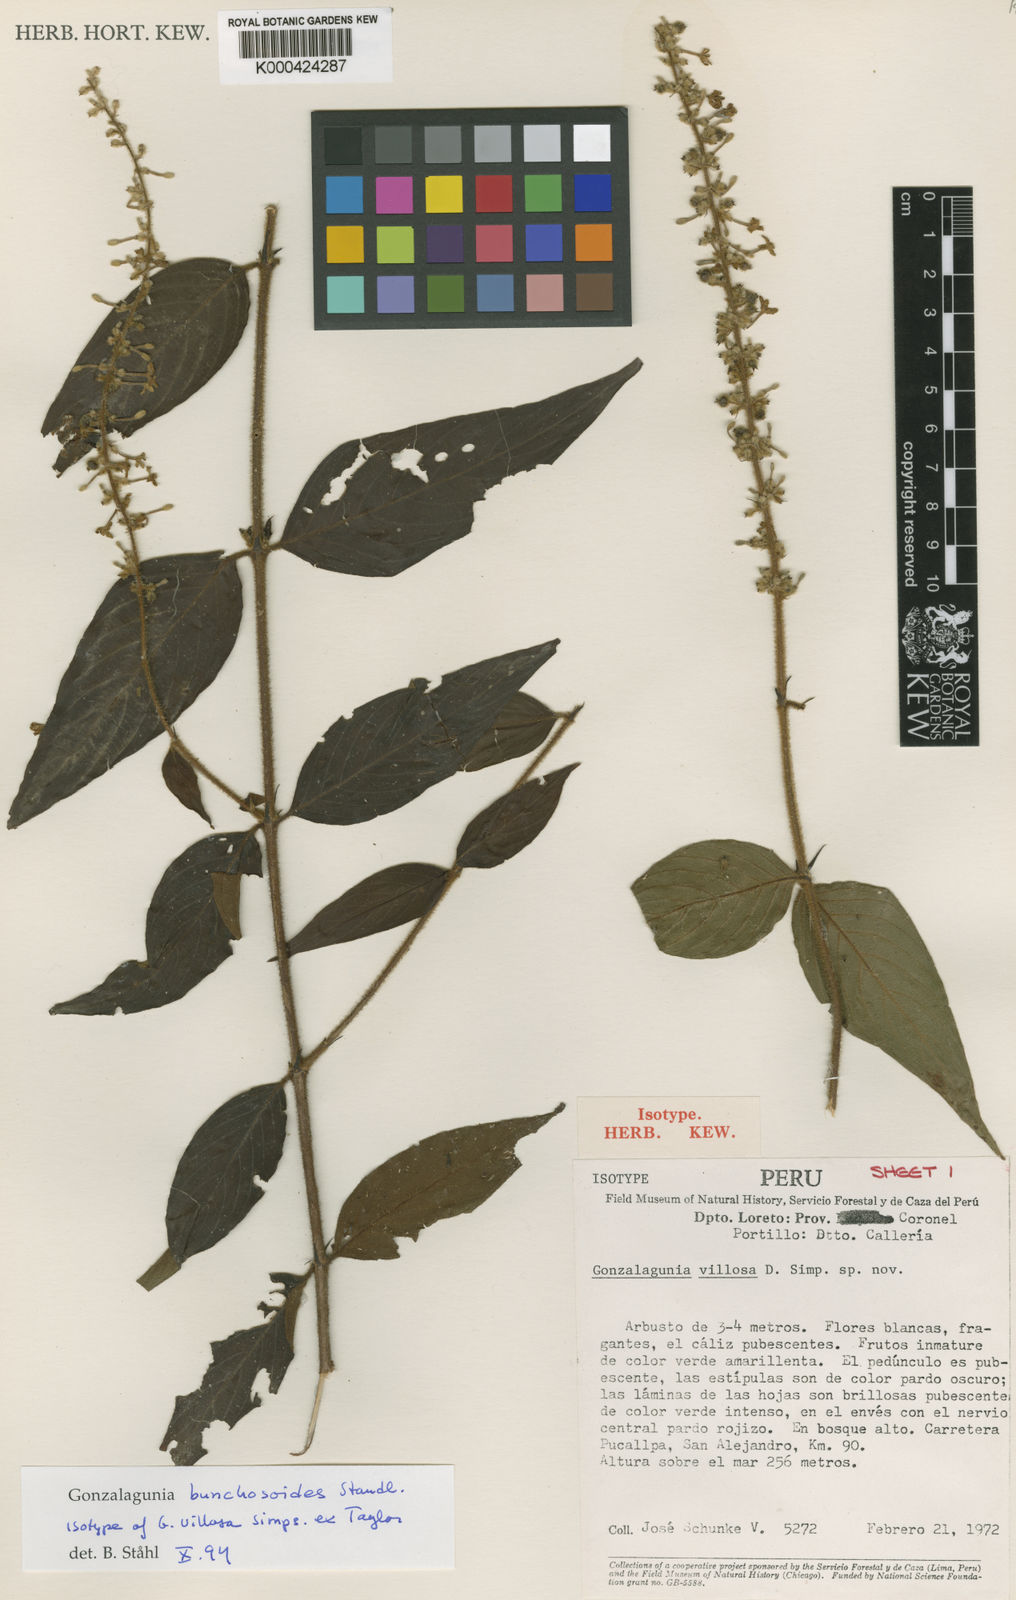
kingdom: Plantae
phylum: Tracheophyta
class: Magnoliopsida
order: Gentianales
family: Rubiaceae
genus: Gonzalagunia
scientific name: Gonzalagunia bunchosioides
